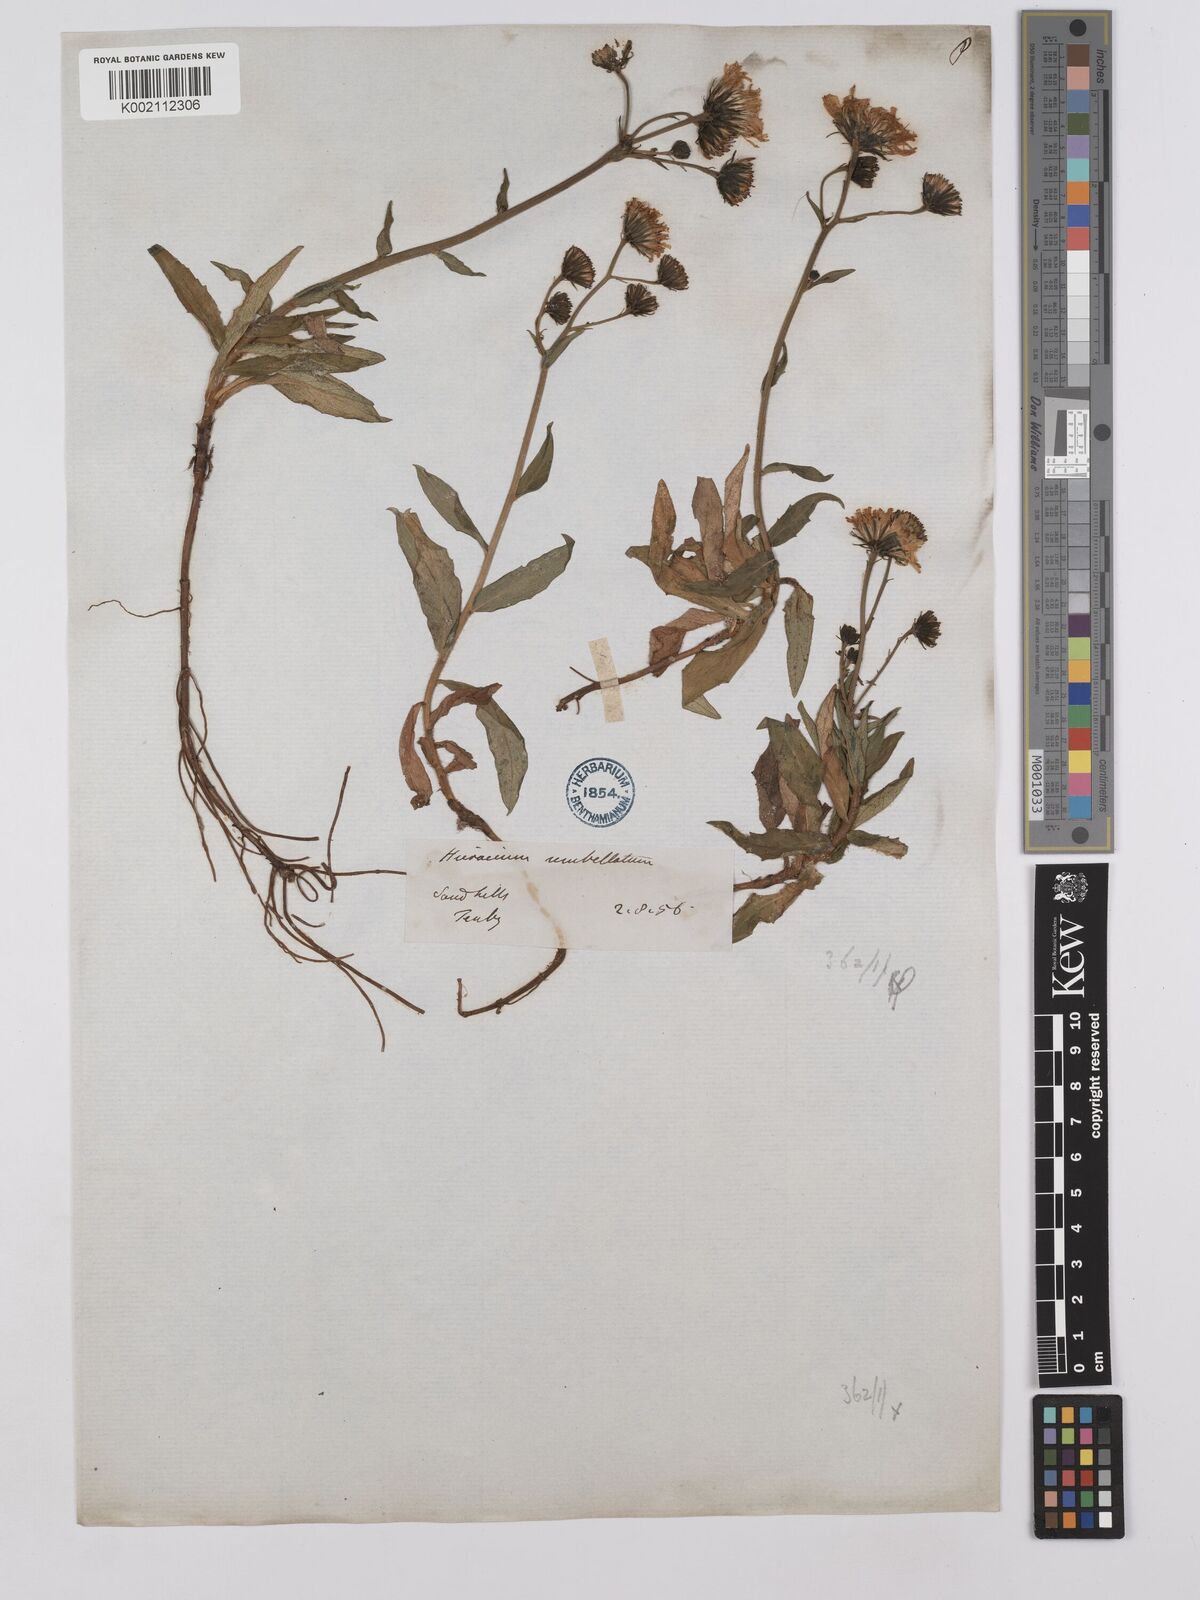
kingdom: Plantae
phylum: Tracheophyta
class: Magnoliopsida
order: Asterales
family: Asteraceae
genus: Hieracium
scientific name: Hieracium umbellatum
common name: Northern hawkweed
